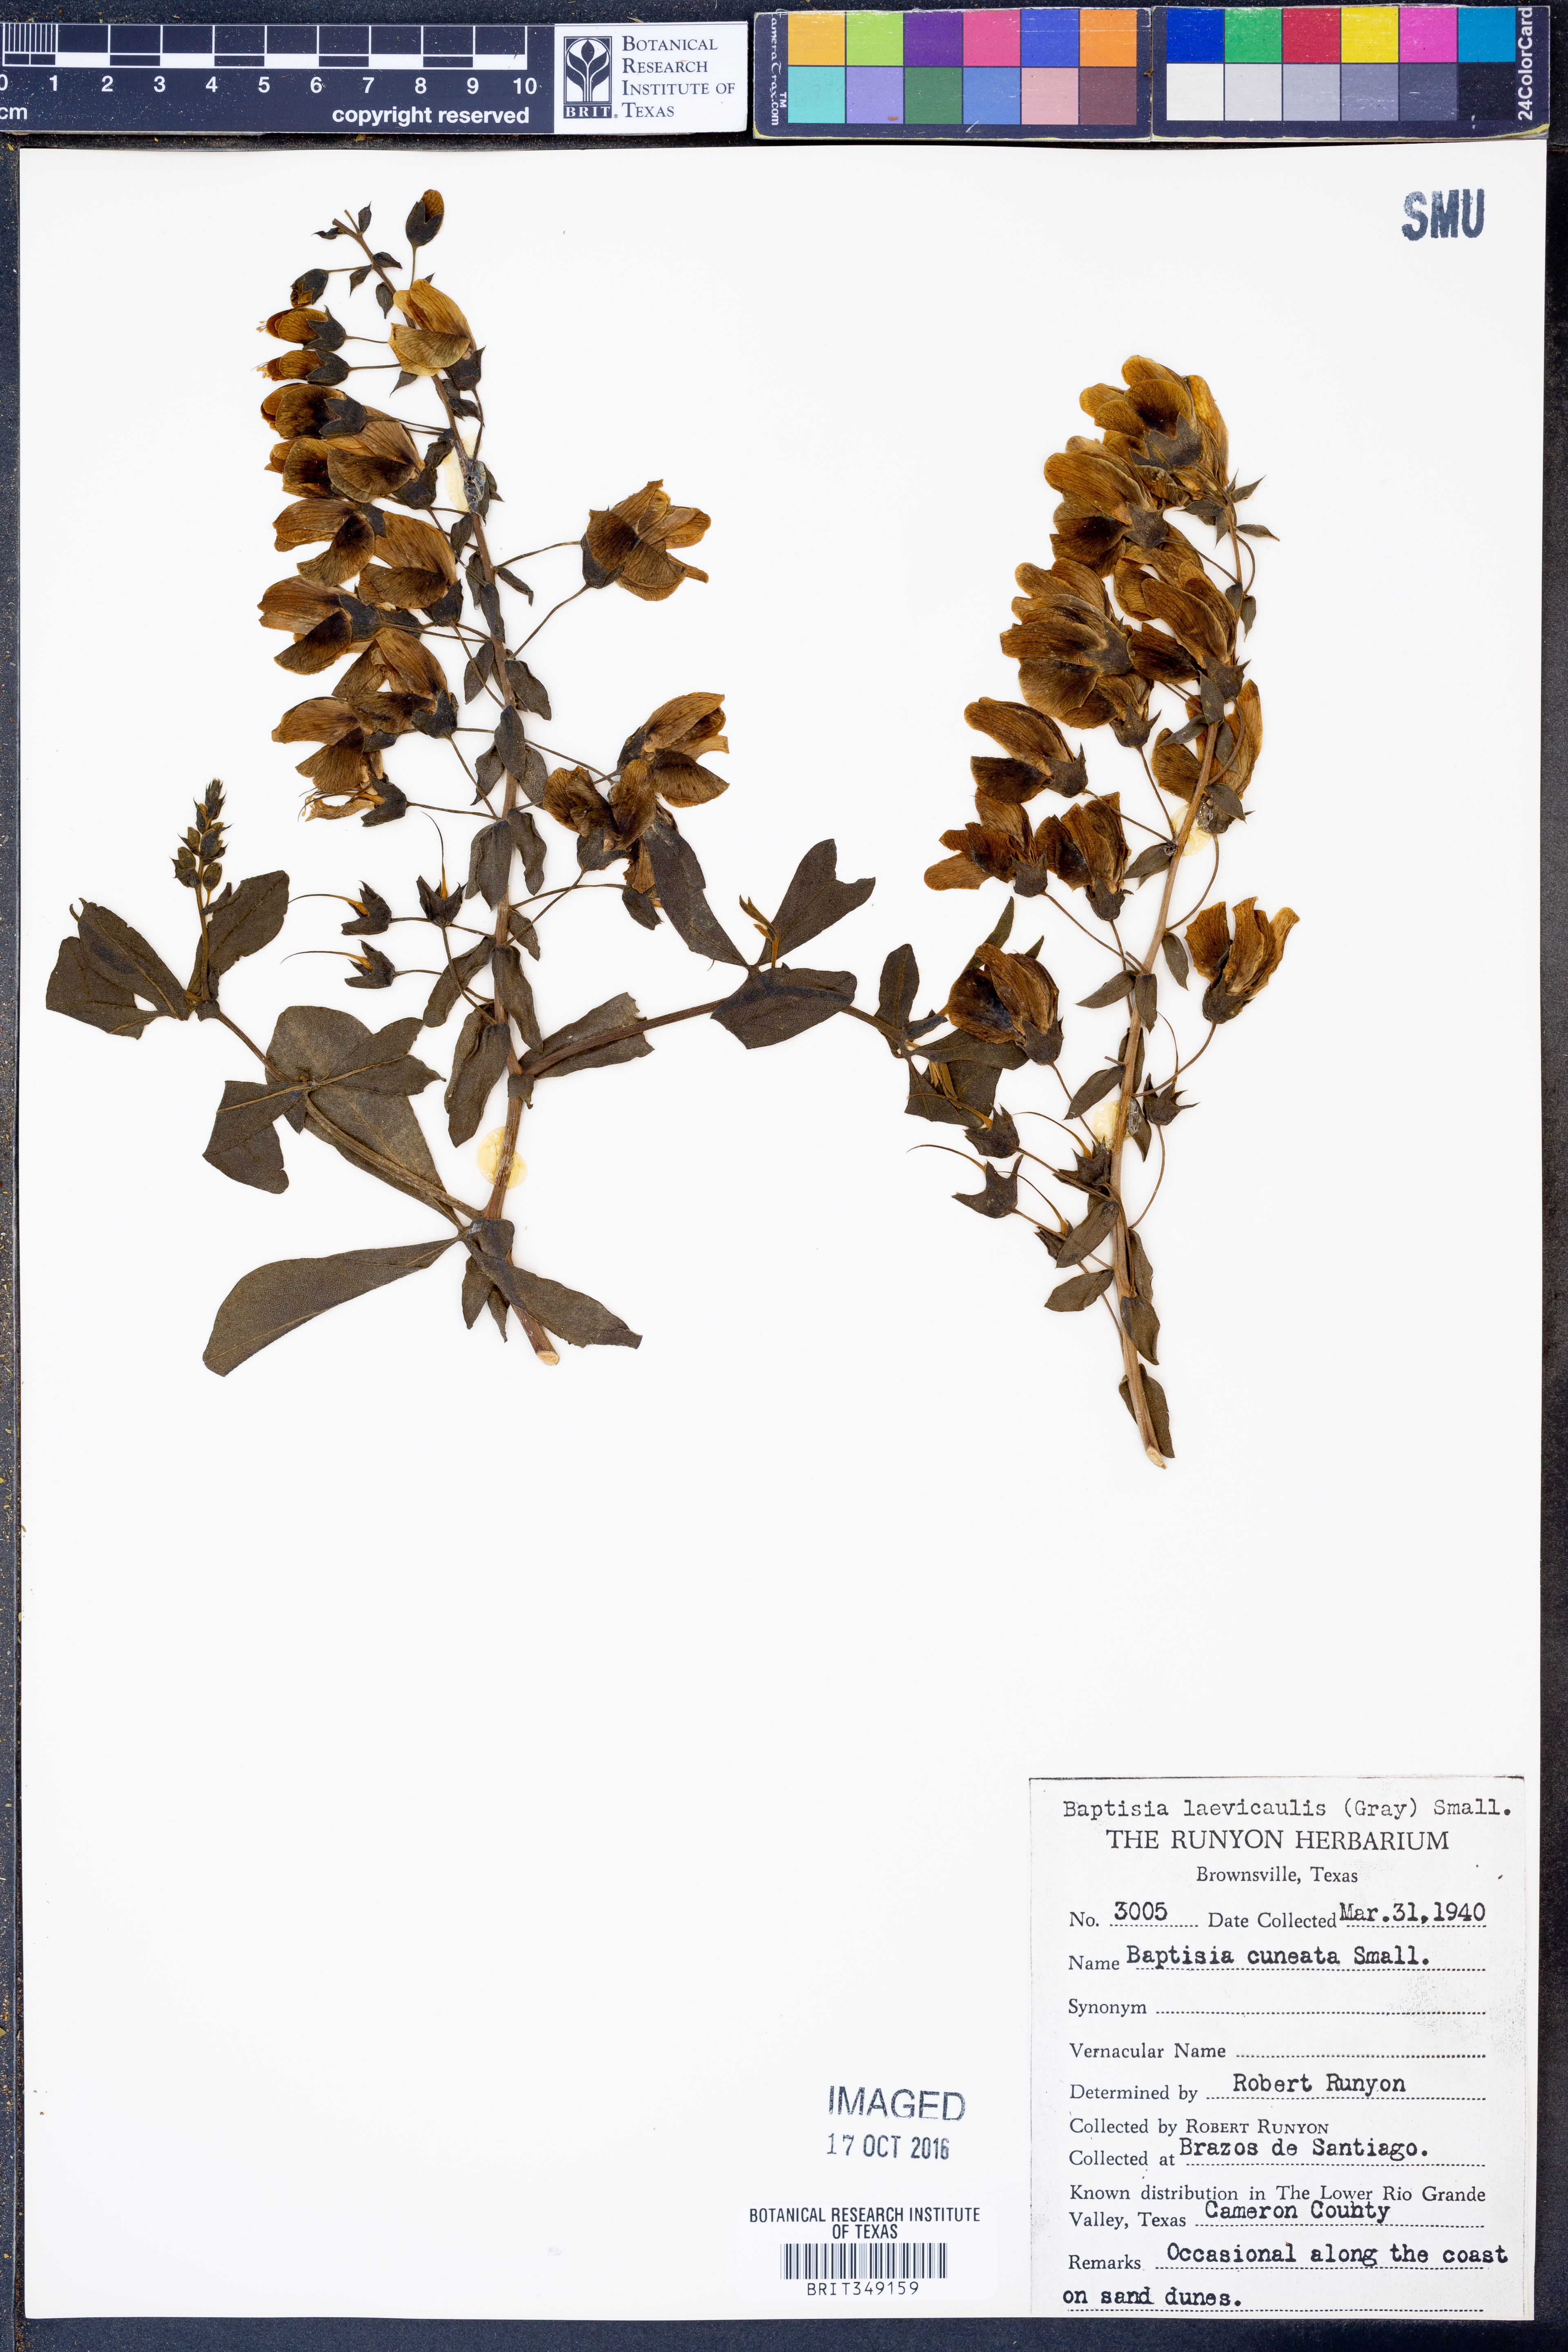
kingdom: Plantae
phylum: Tracheophyta
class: Magnoliopsida
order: Fabales
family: Fabaceae
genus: Baptisia
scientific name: Baptisia bracteata
